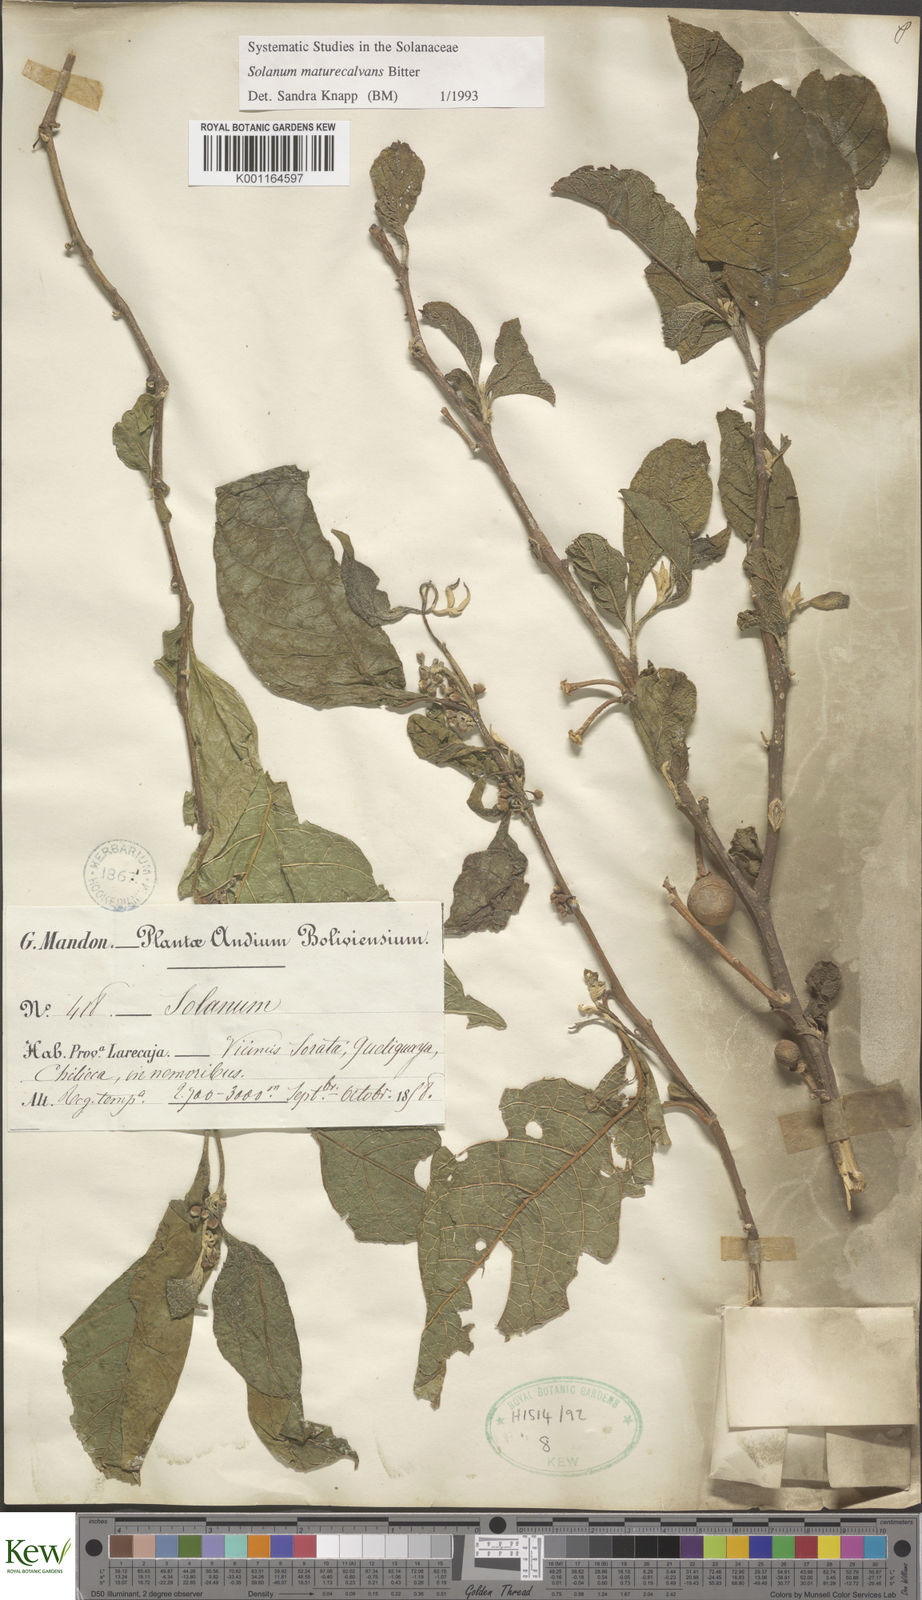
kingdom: Plantae
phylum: Tracheophyta
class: Magnoliopsida
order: Solanales
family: Solanaceae
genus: Solanum
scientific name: Solanum maturecalvans
